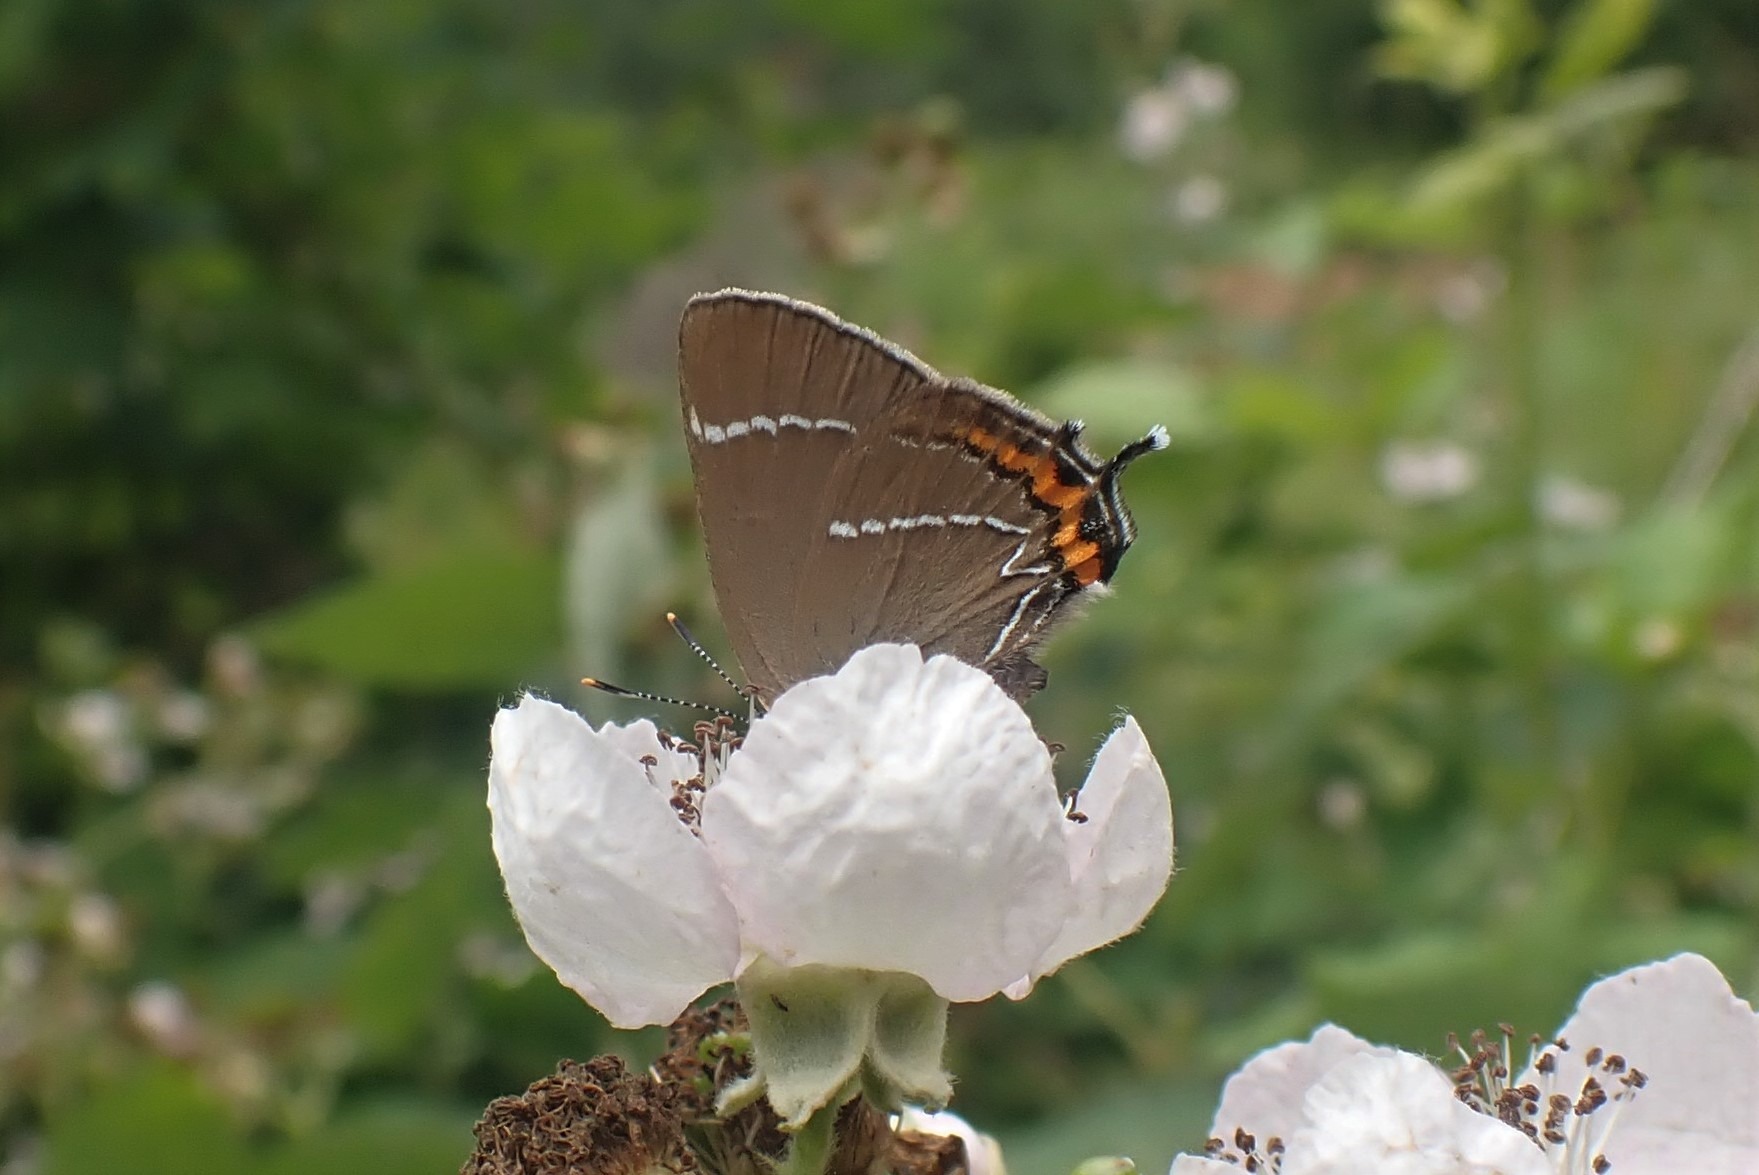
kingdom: Animalia
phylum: Arthropoda
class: Insecta
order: Lepidoptera
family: Lycaenidae
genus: Satyrium
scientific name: Satyrium w-album
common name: Det hvide W
